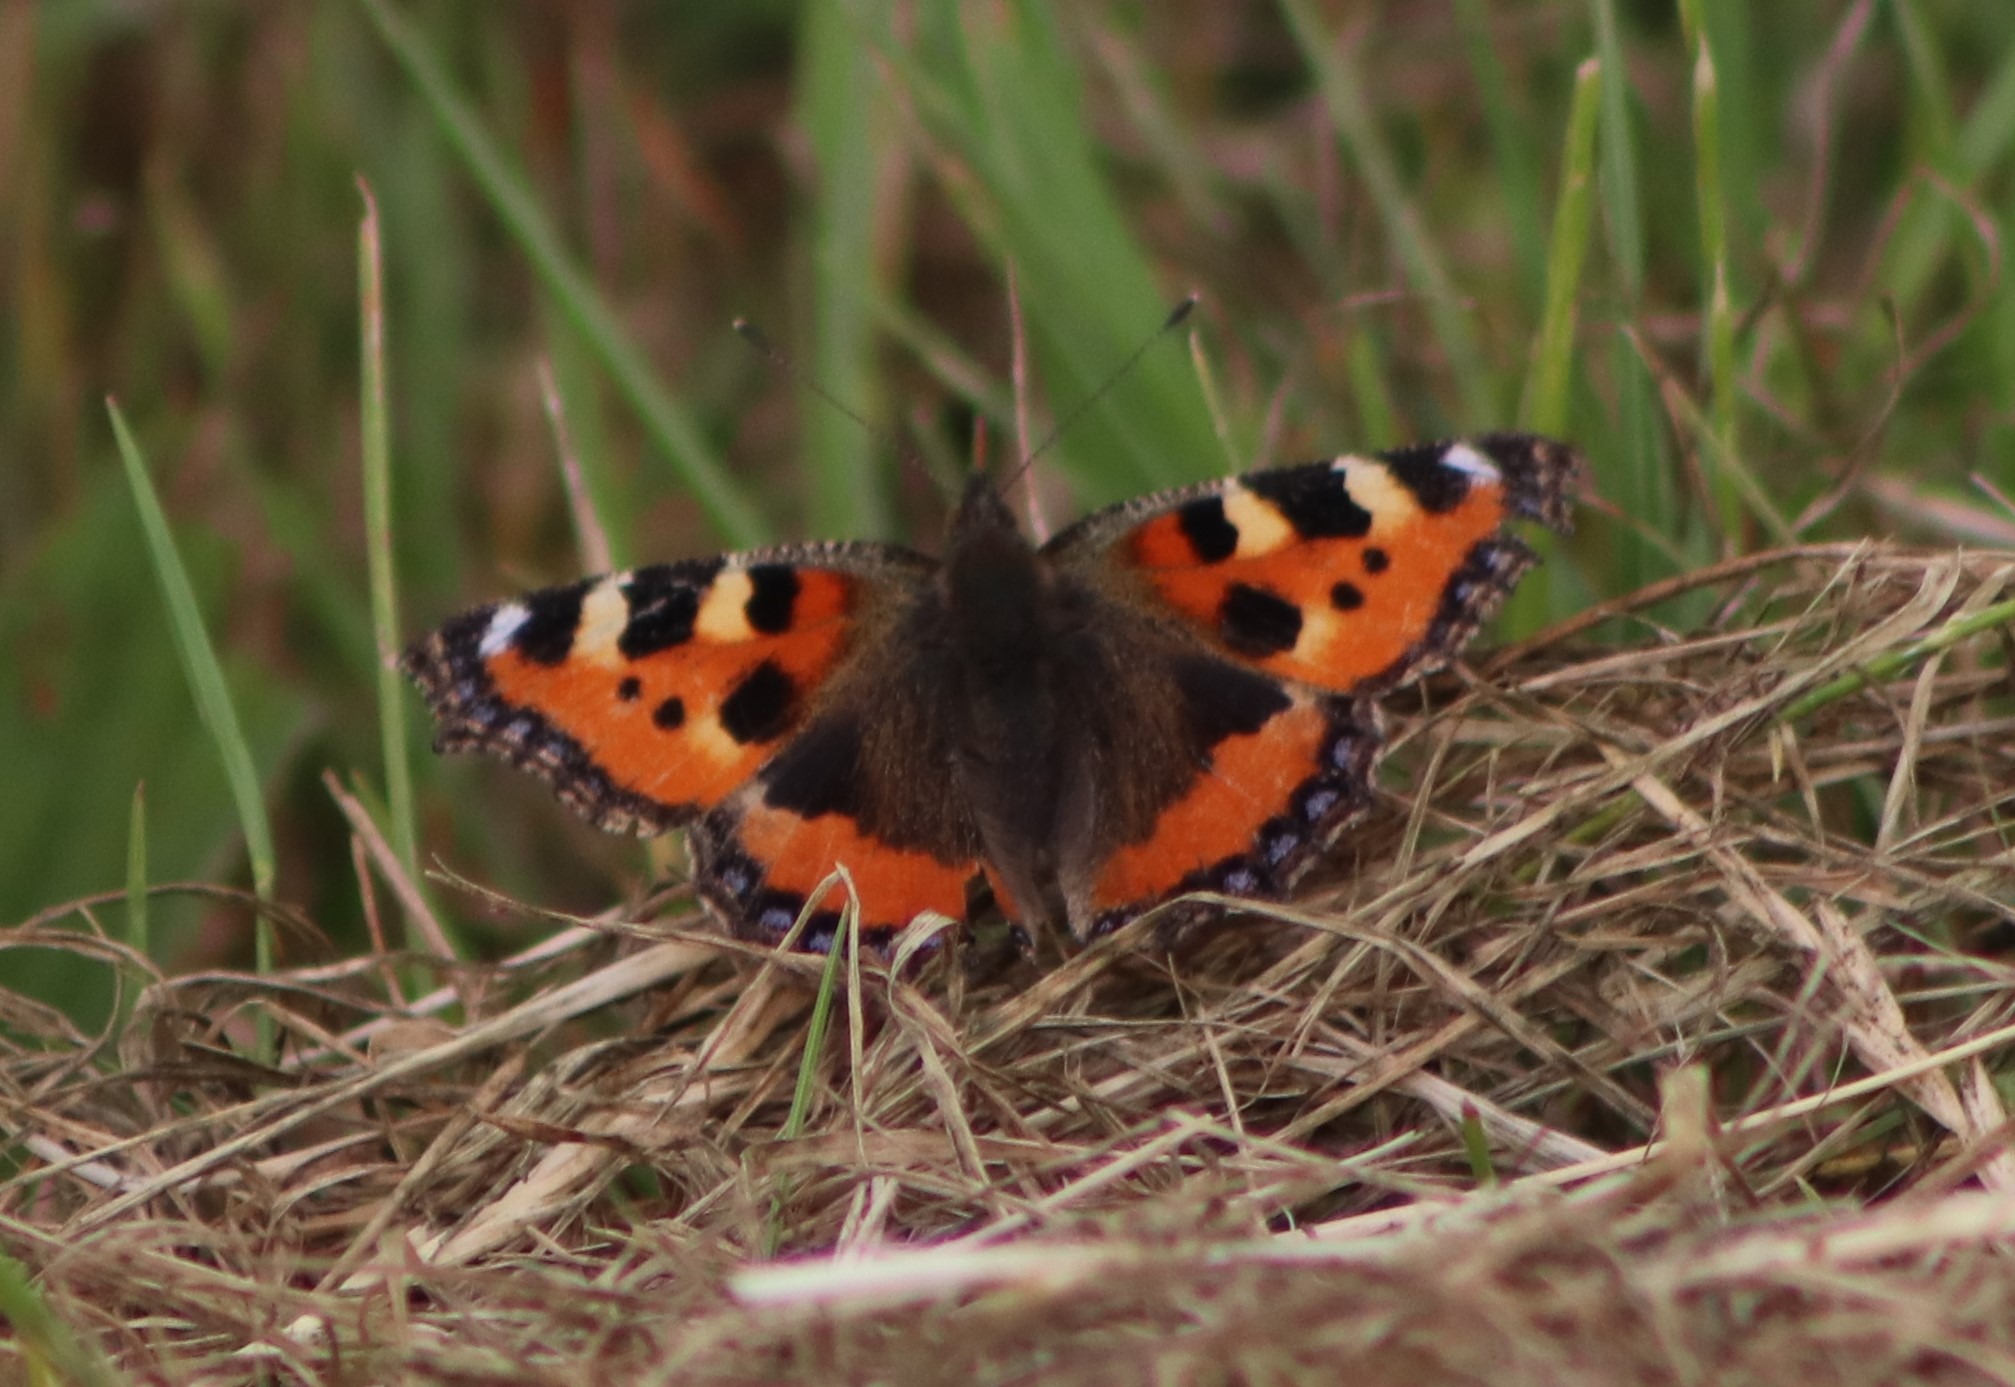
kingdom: Animalia
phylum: Arthropoda
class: Insecta
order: Lepidoptera
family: Nymphalidae
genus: Aglais
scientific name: Aglais urticae
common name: Nældens takvinge
